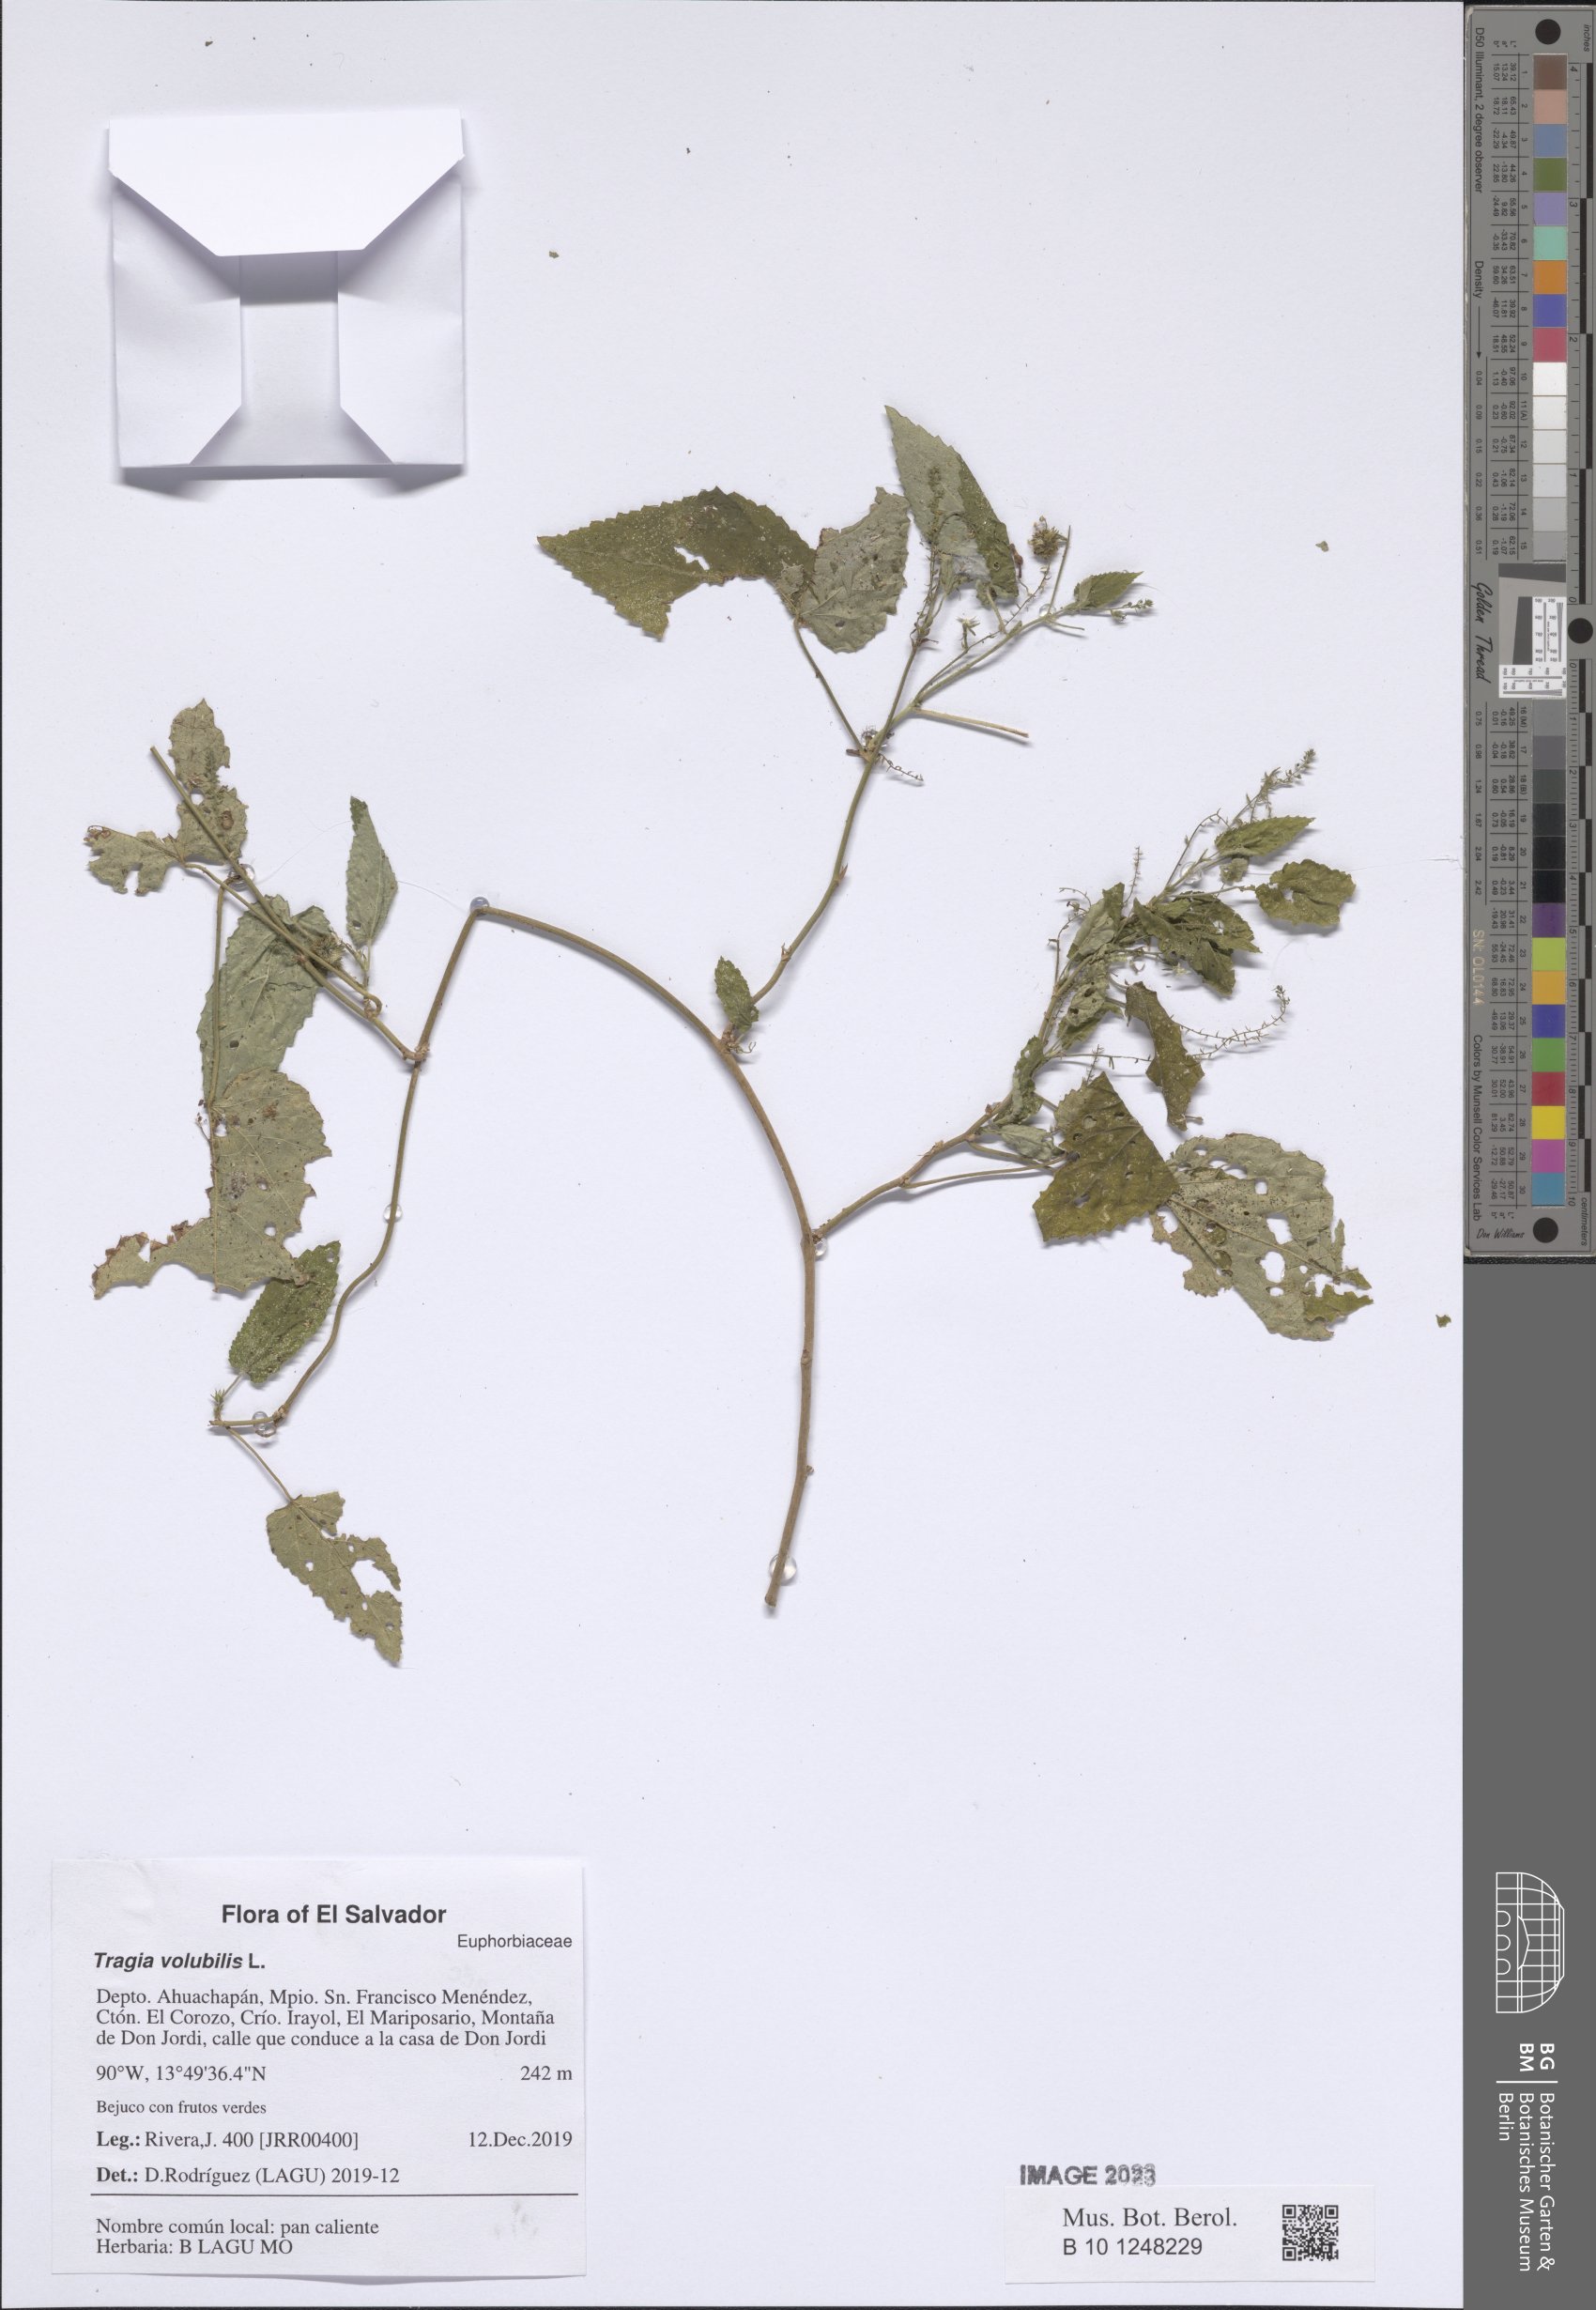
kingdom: Plantae
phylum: Tracheophyta
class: Magnoliopsida
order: Malpighiales
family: Euphorbiaceae
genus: Tragia
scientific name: Tragia volubilis
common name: Twining cow-itch
